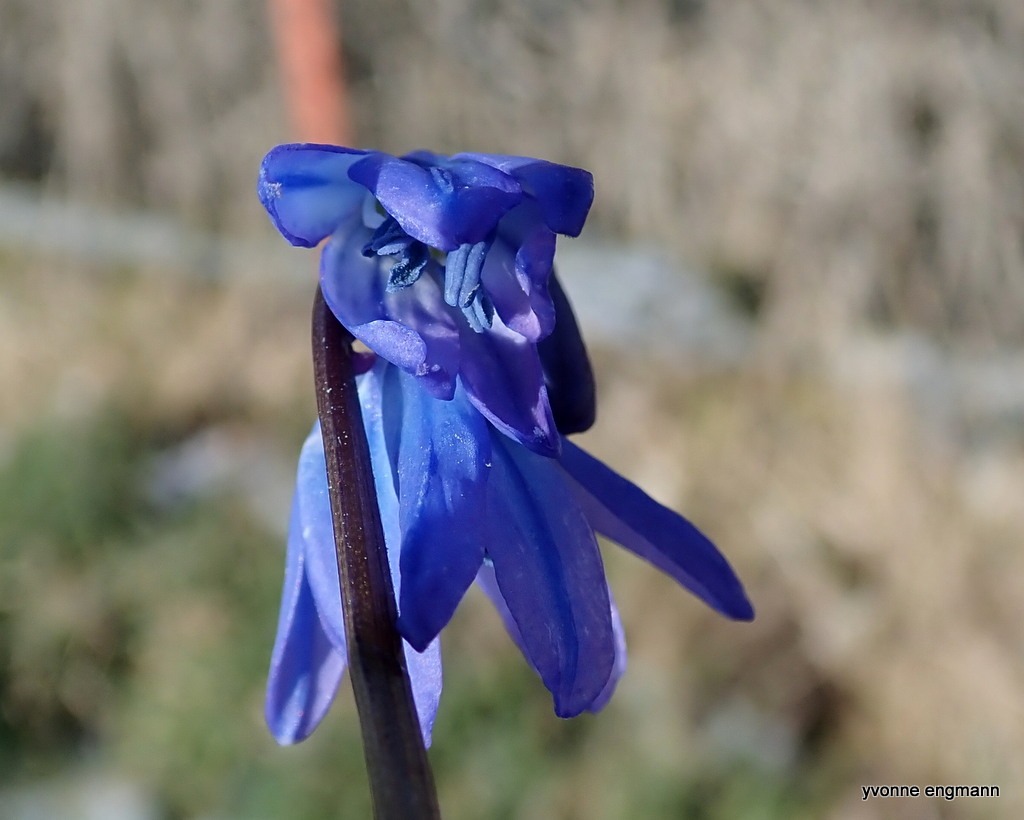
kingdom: Plantae
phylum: Tracheophyta
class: Liliopsida
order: Asparagales
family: Asparagaceae
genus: Scilla
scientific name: Scilla siberica
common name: Russisk skilla
